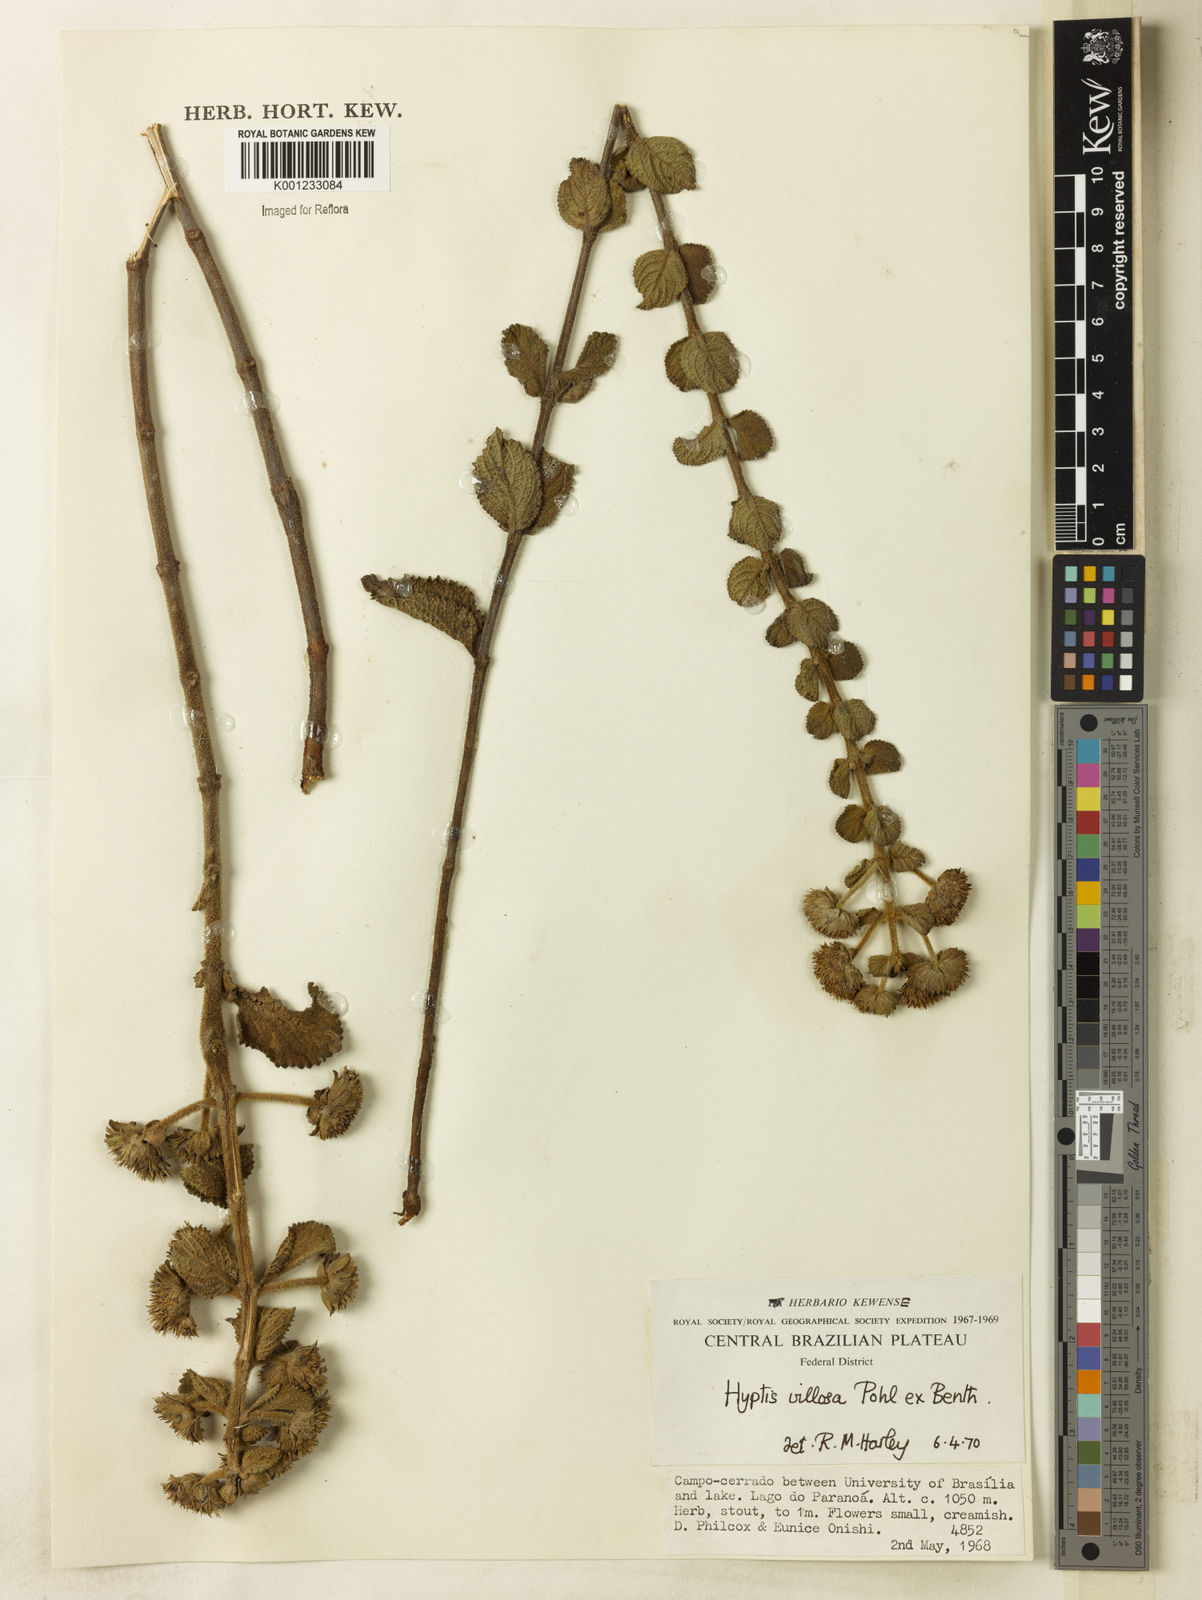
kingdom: Plantae
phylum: Tracheophyta
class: Magnoliopsida
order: Lamiales
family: Lamiaceae
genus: Hyptis
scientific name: Hyptis villosa
